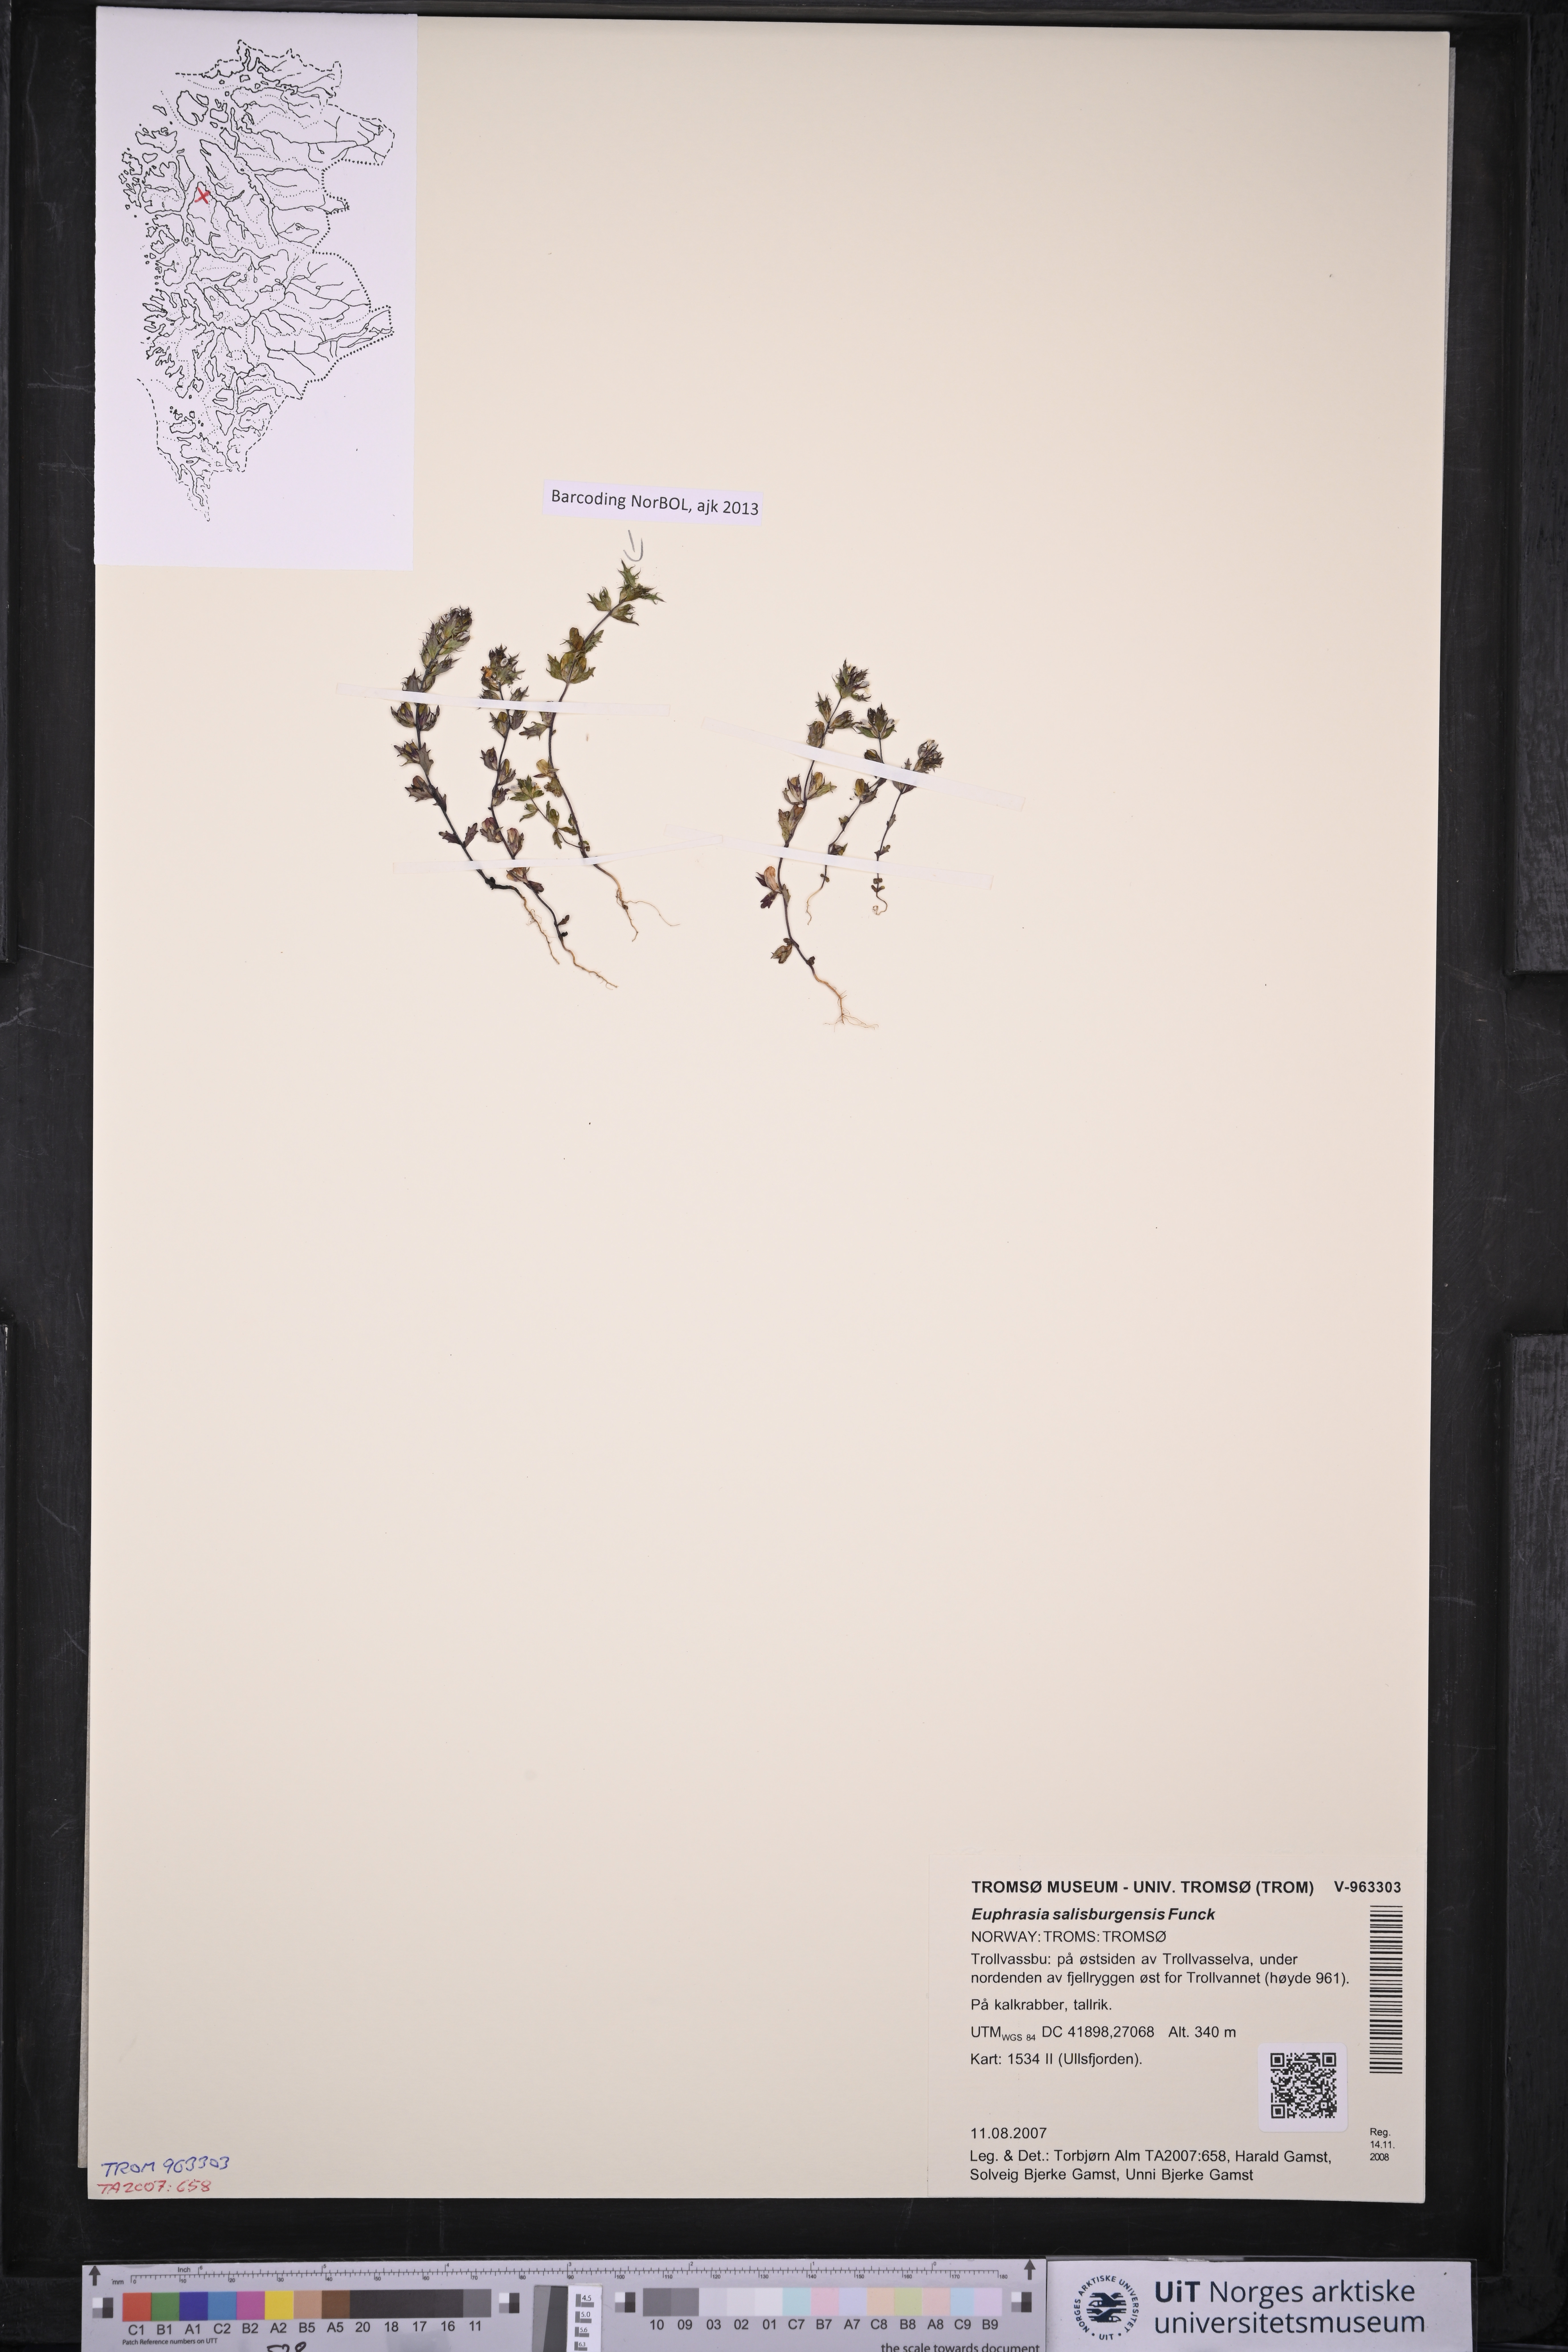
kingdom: Plantae
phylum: Tracheophyta
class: Magnoliopsida
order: Lamiales
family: Orobanchaceae
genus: Euphrasia
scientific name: Euphrasia salisburgensis
